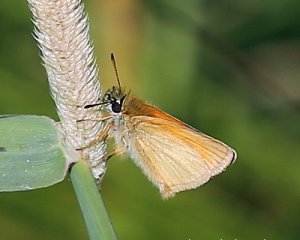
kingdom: Animalia
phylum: Arthropoda
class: Insecta
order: Lepidoptera
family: Hesperiidae
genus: Thymelicus
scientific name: Thymelicus lineola
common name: European Skipper
